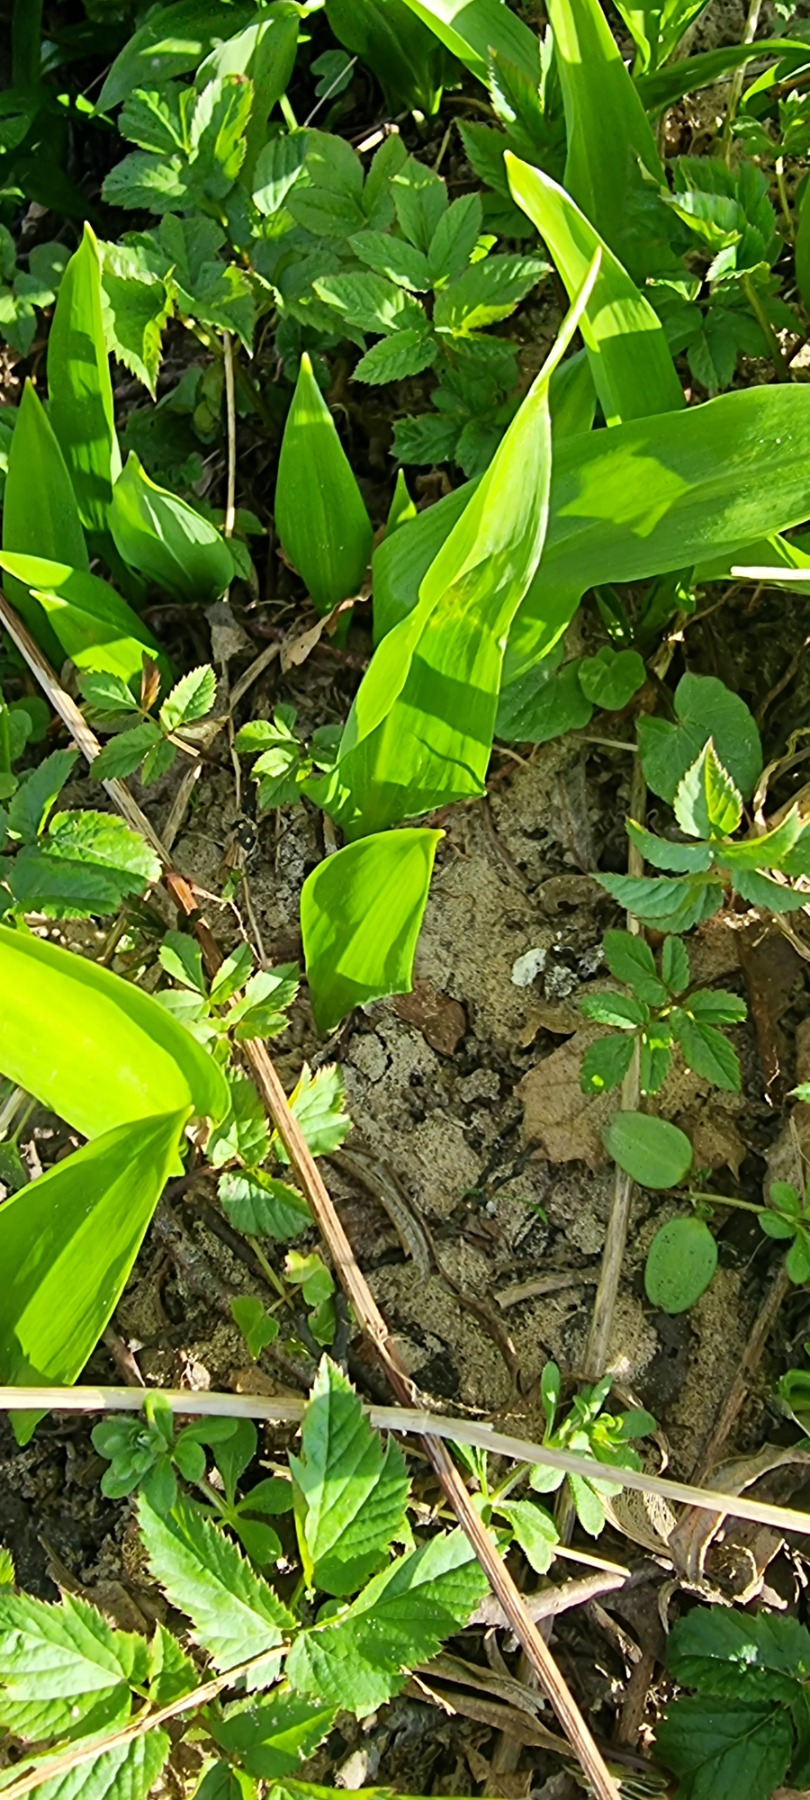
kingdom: Plantae
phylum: Tracheophyta
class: Liliopsida
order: Asparagales
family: Amaryllidaceae
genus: Allium
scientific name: Allium ursinum
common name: Rams-løg
